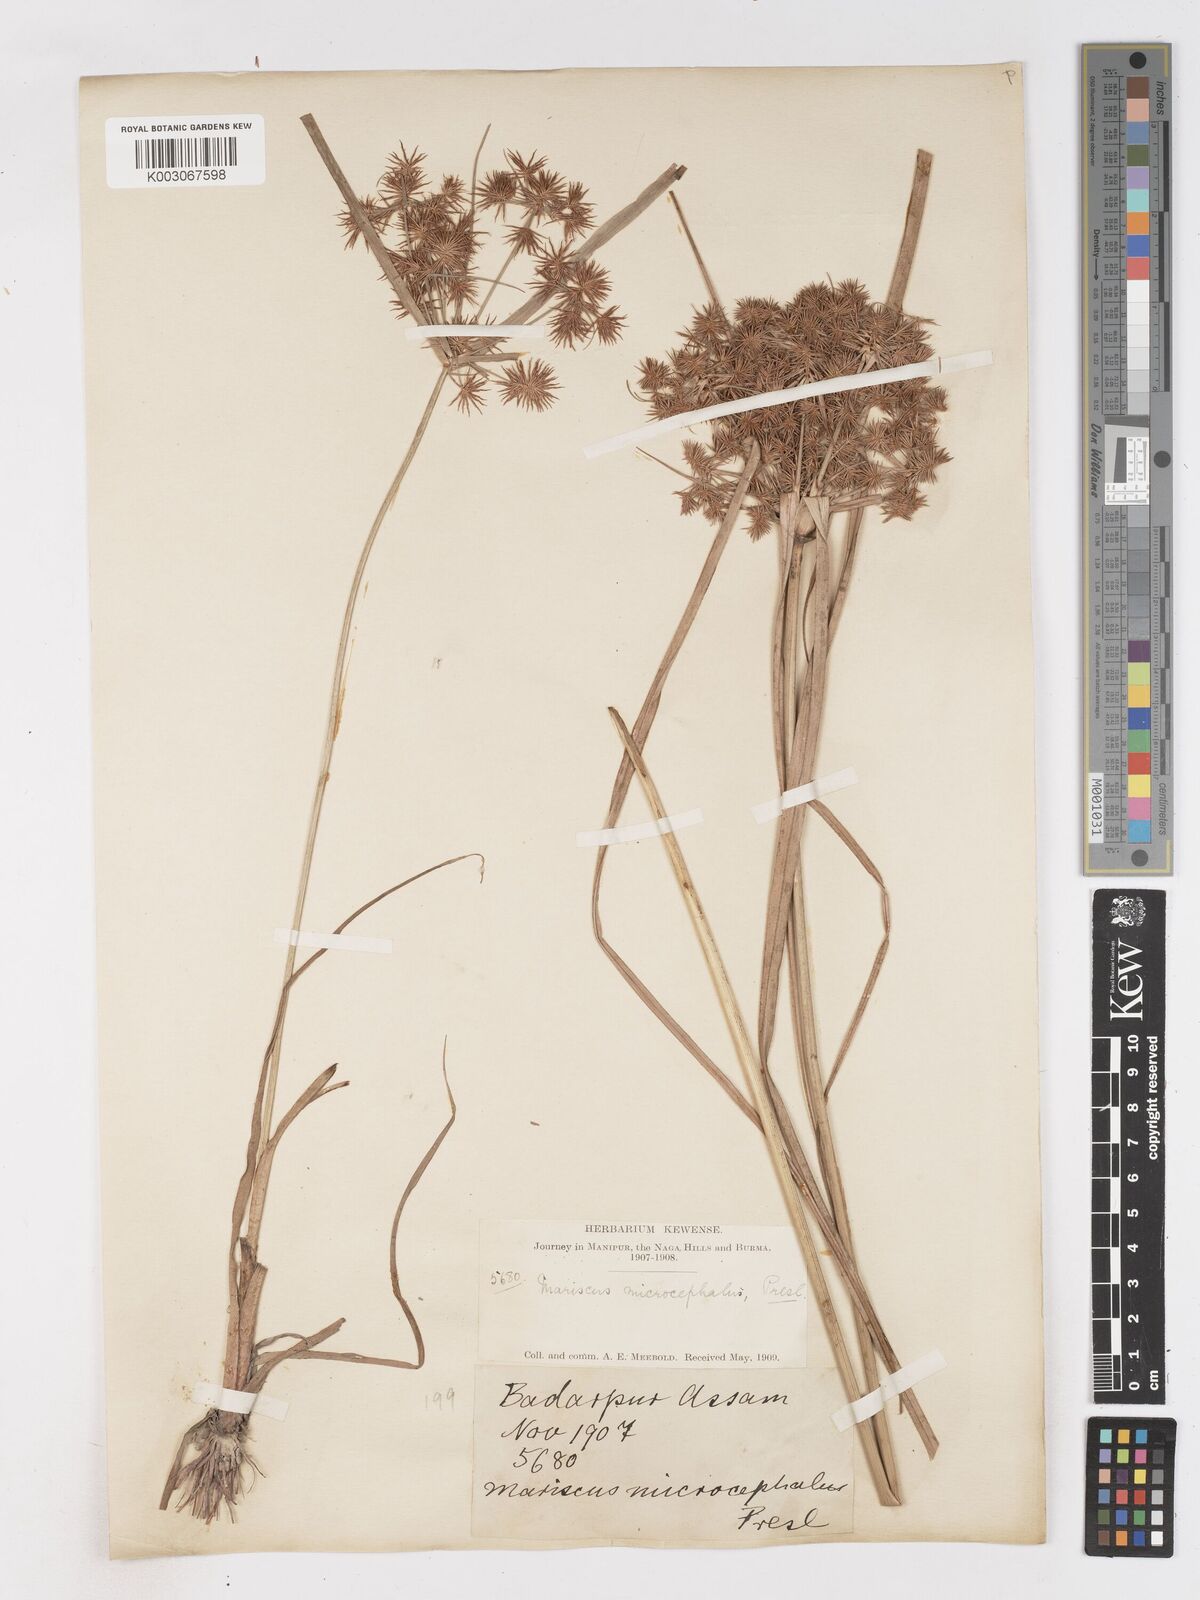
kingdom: Plantae
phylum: Tracheophyta
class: Liliopsida
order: Poales
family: Cyperaceae
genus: Cyperus
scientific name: Cyperus compactus
